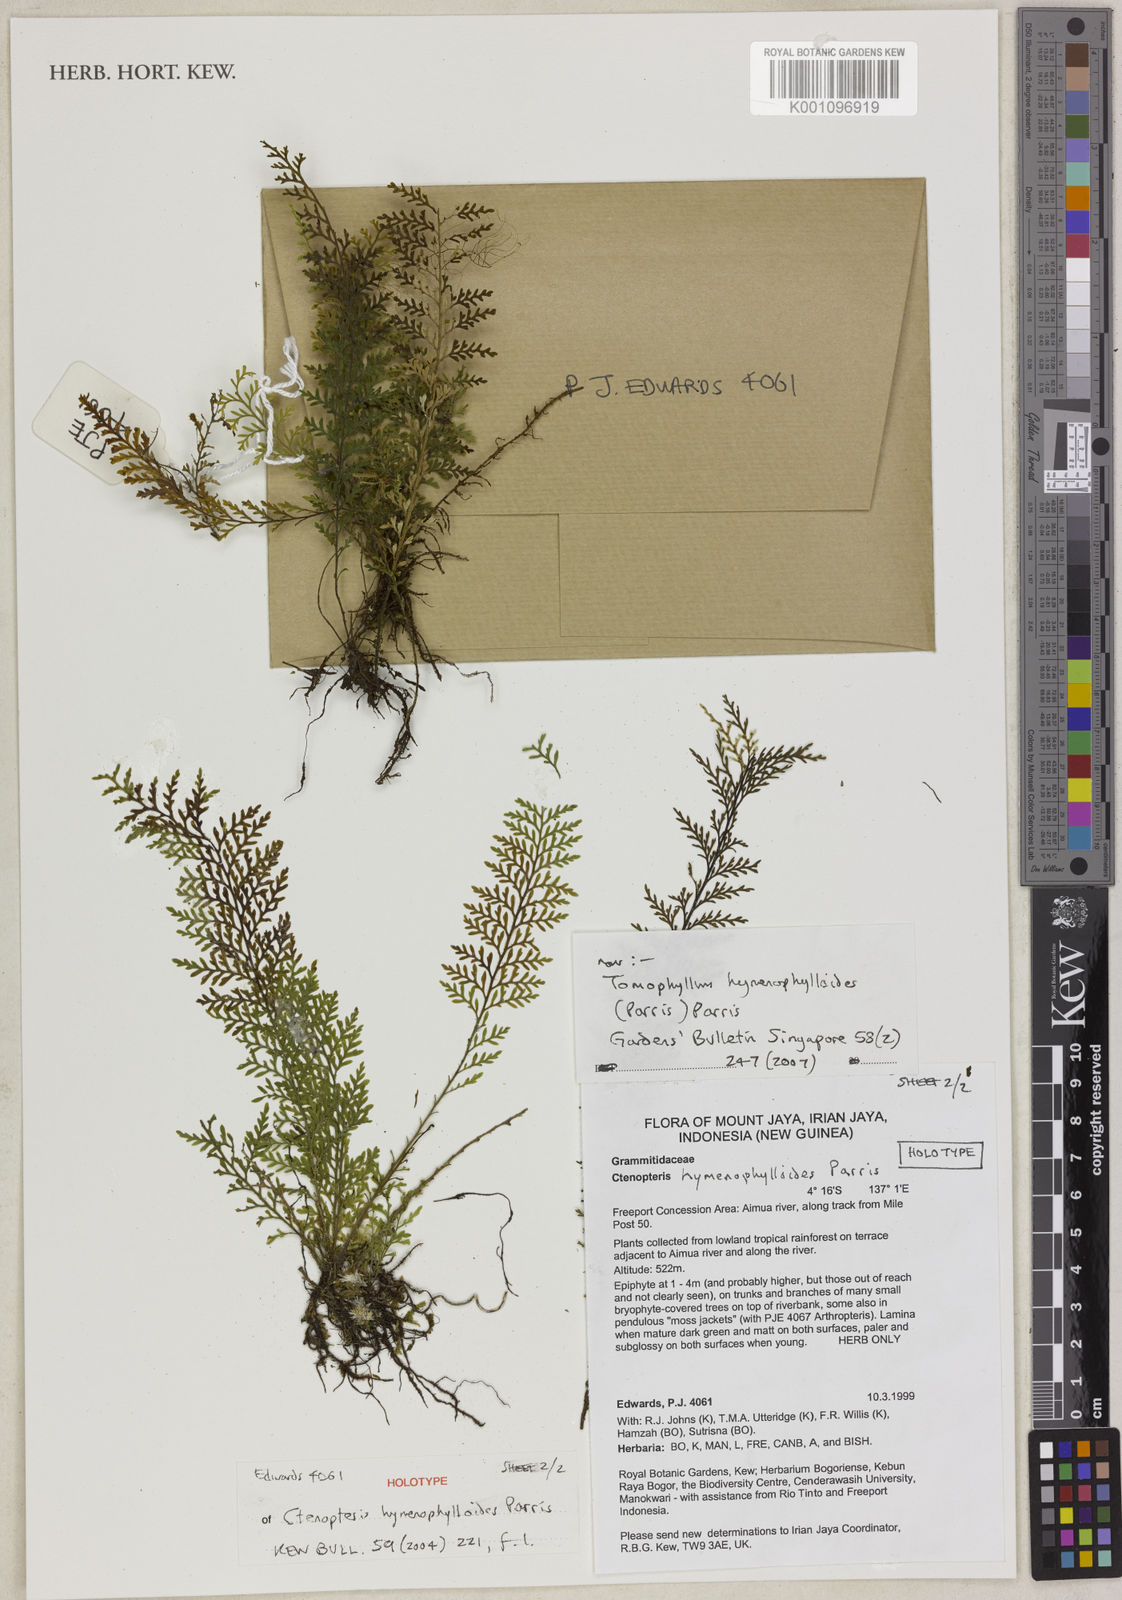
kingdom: Plantae
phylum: Tracheophyta
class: Polypodiopsida
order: Polypodiales
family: Polypodiaceae
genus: Tomophyllum
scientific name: Tomophyllum hymenophylloides
